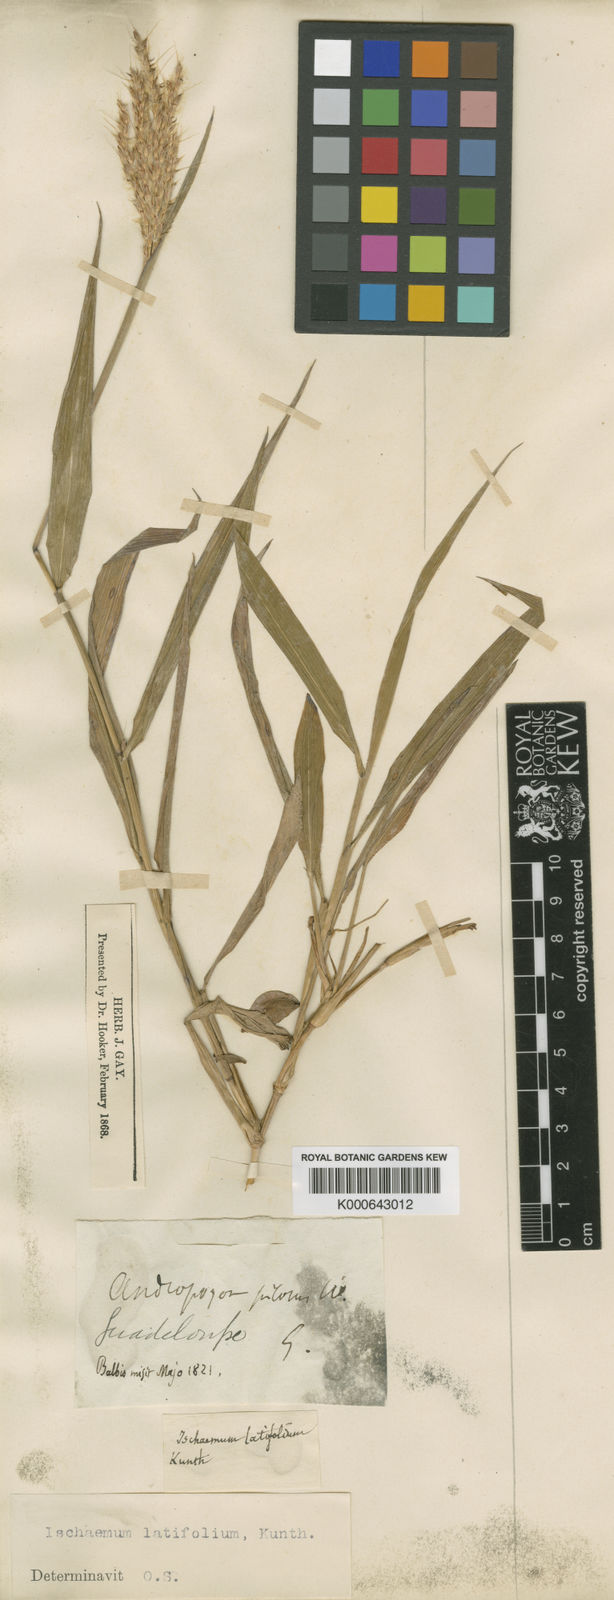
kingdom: Plantae
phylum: Tracheophyta
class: Liliopsida
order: Poales
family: Poaceae
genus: Ischaemum
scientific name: Ischaemum latifolium
